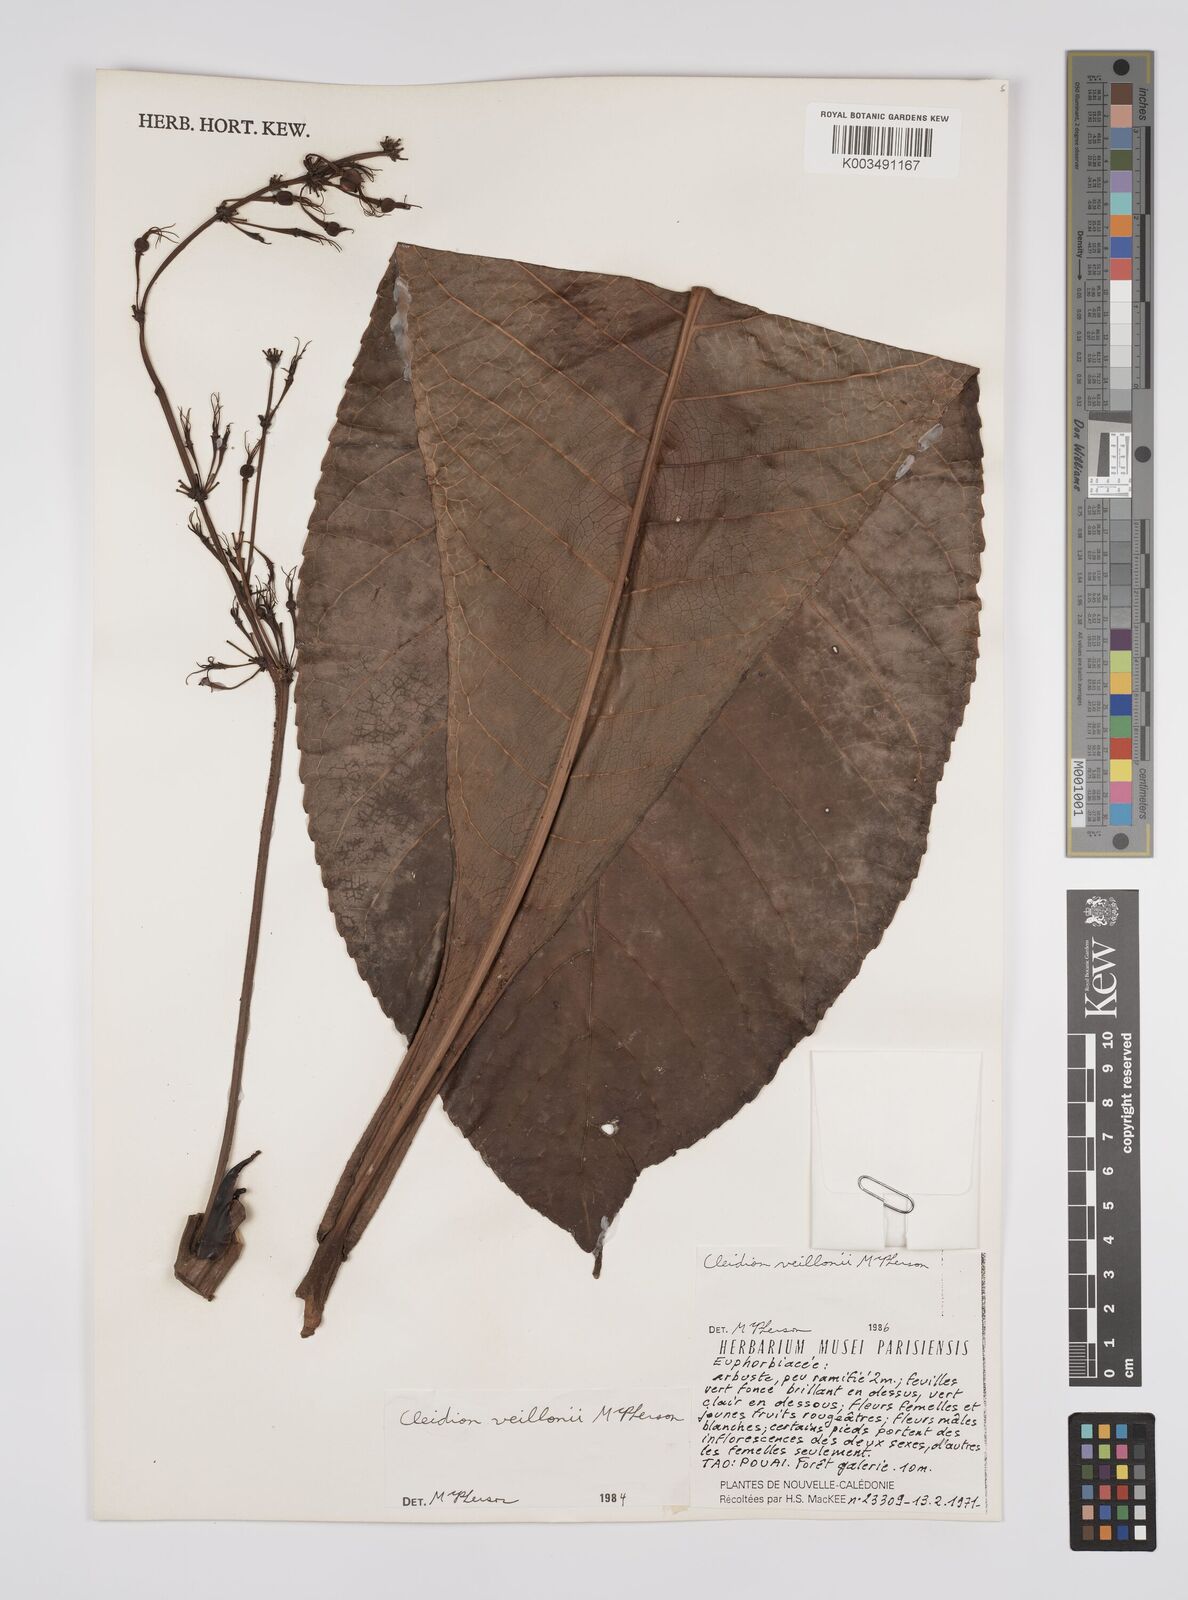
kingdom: Plantae
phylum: Tracheophyta
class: Magnoliopsida
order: Malpighiales
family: Euphorbiaceae
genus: Cleidion
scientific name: Cleidion veillonii
